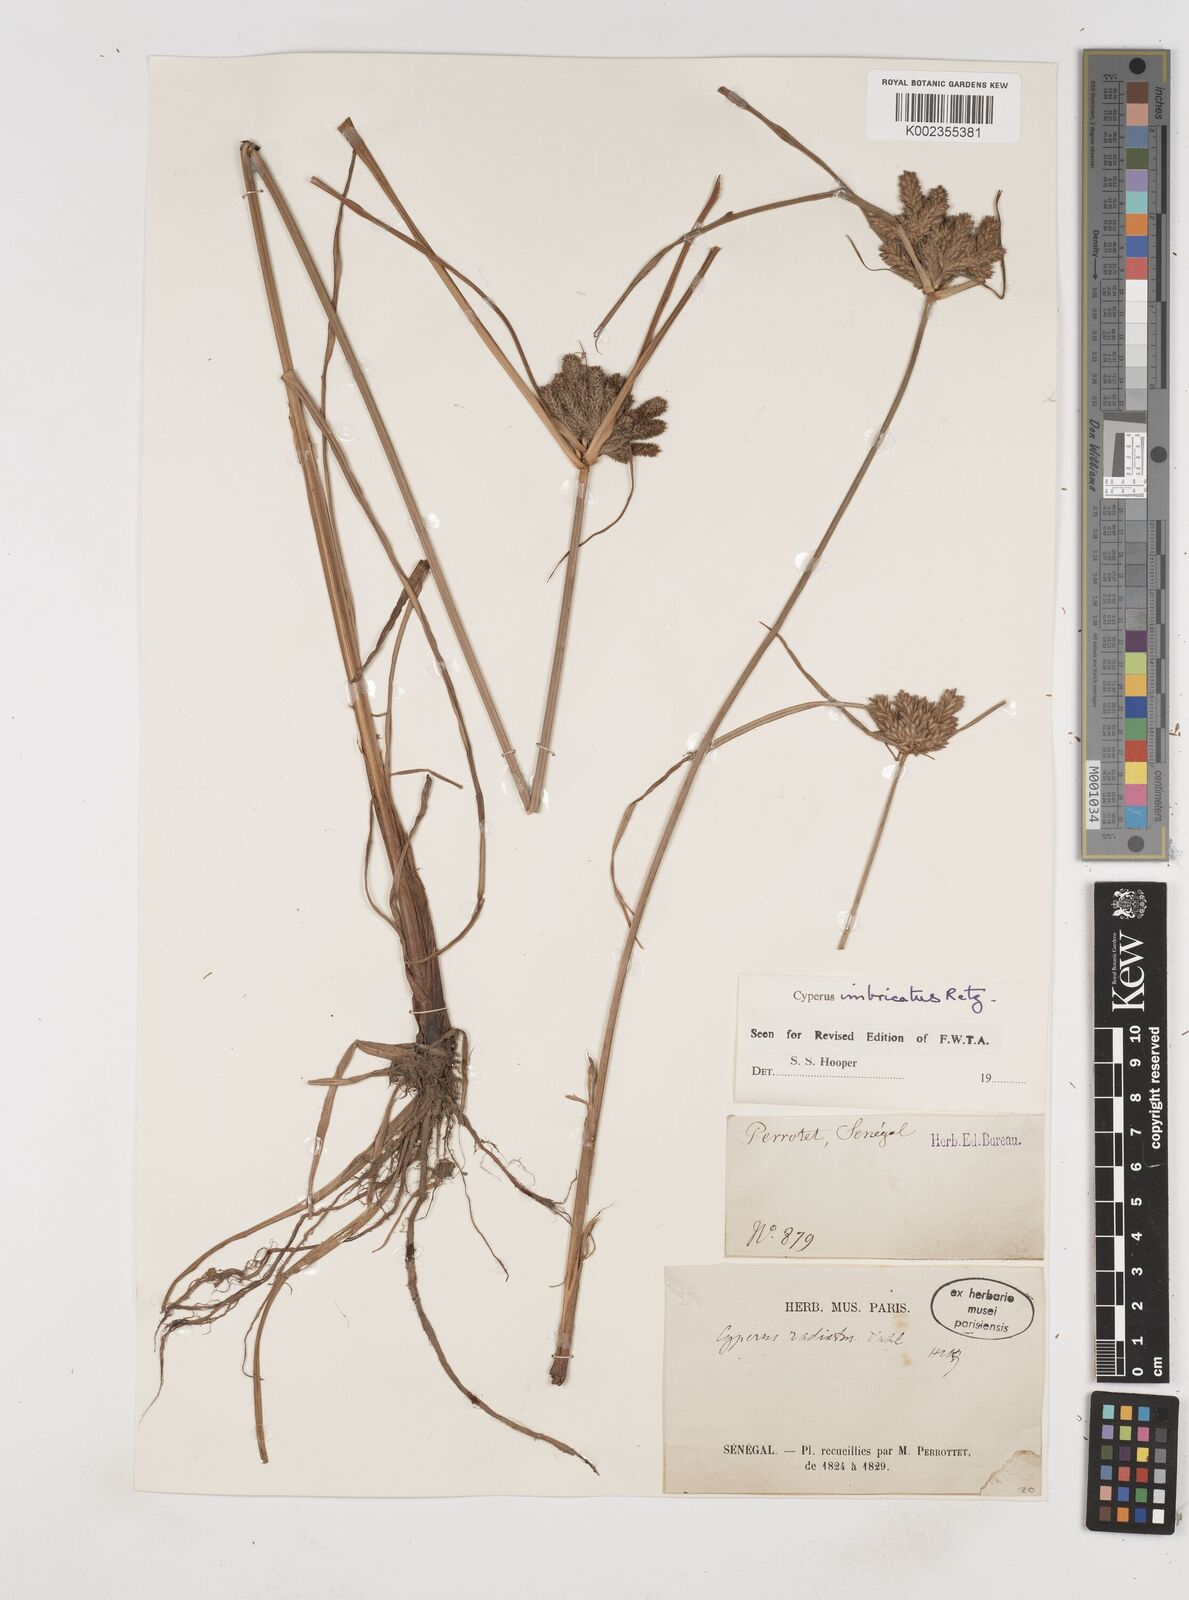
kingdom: Plantae
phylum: Tracheophyta
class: Liliopsida
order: Poales
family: Cyperaceae
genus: Cyperus
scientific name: Cyperus imbricatus
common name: Shingle flatsedge
